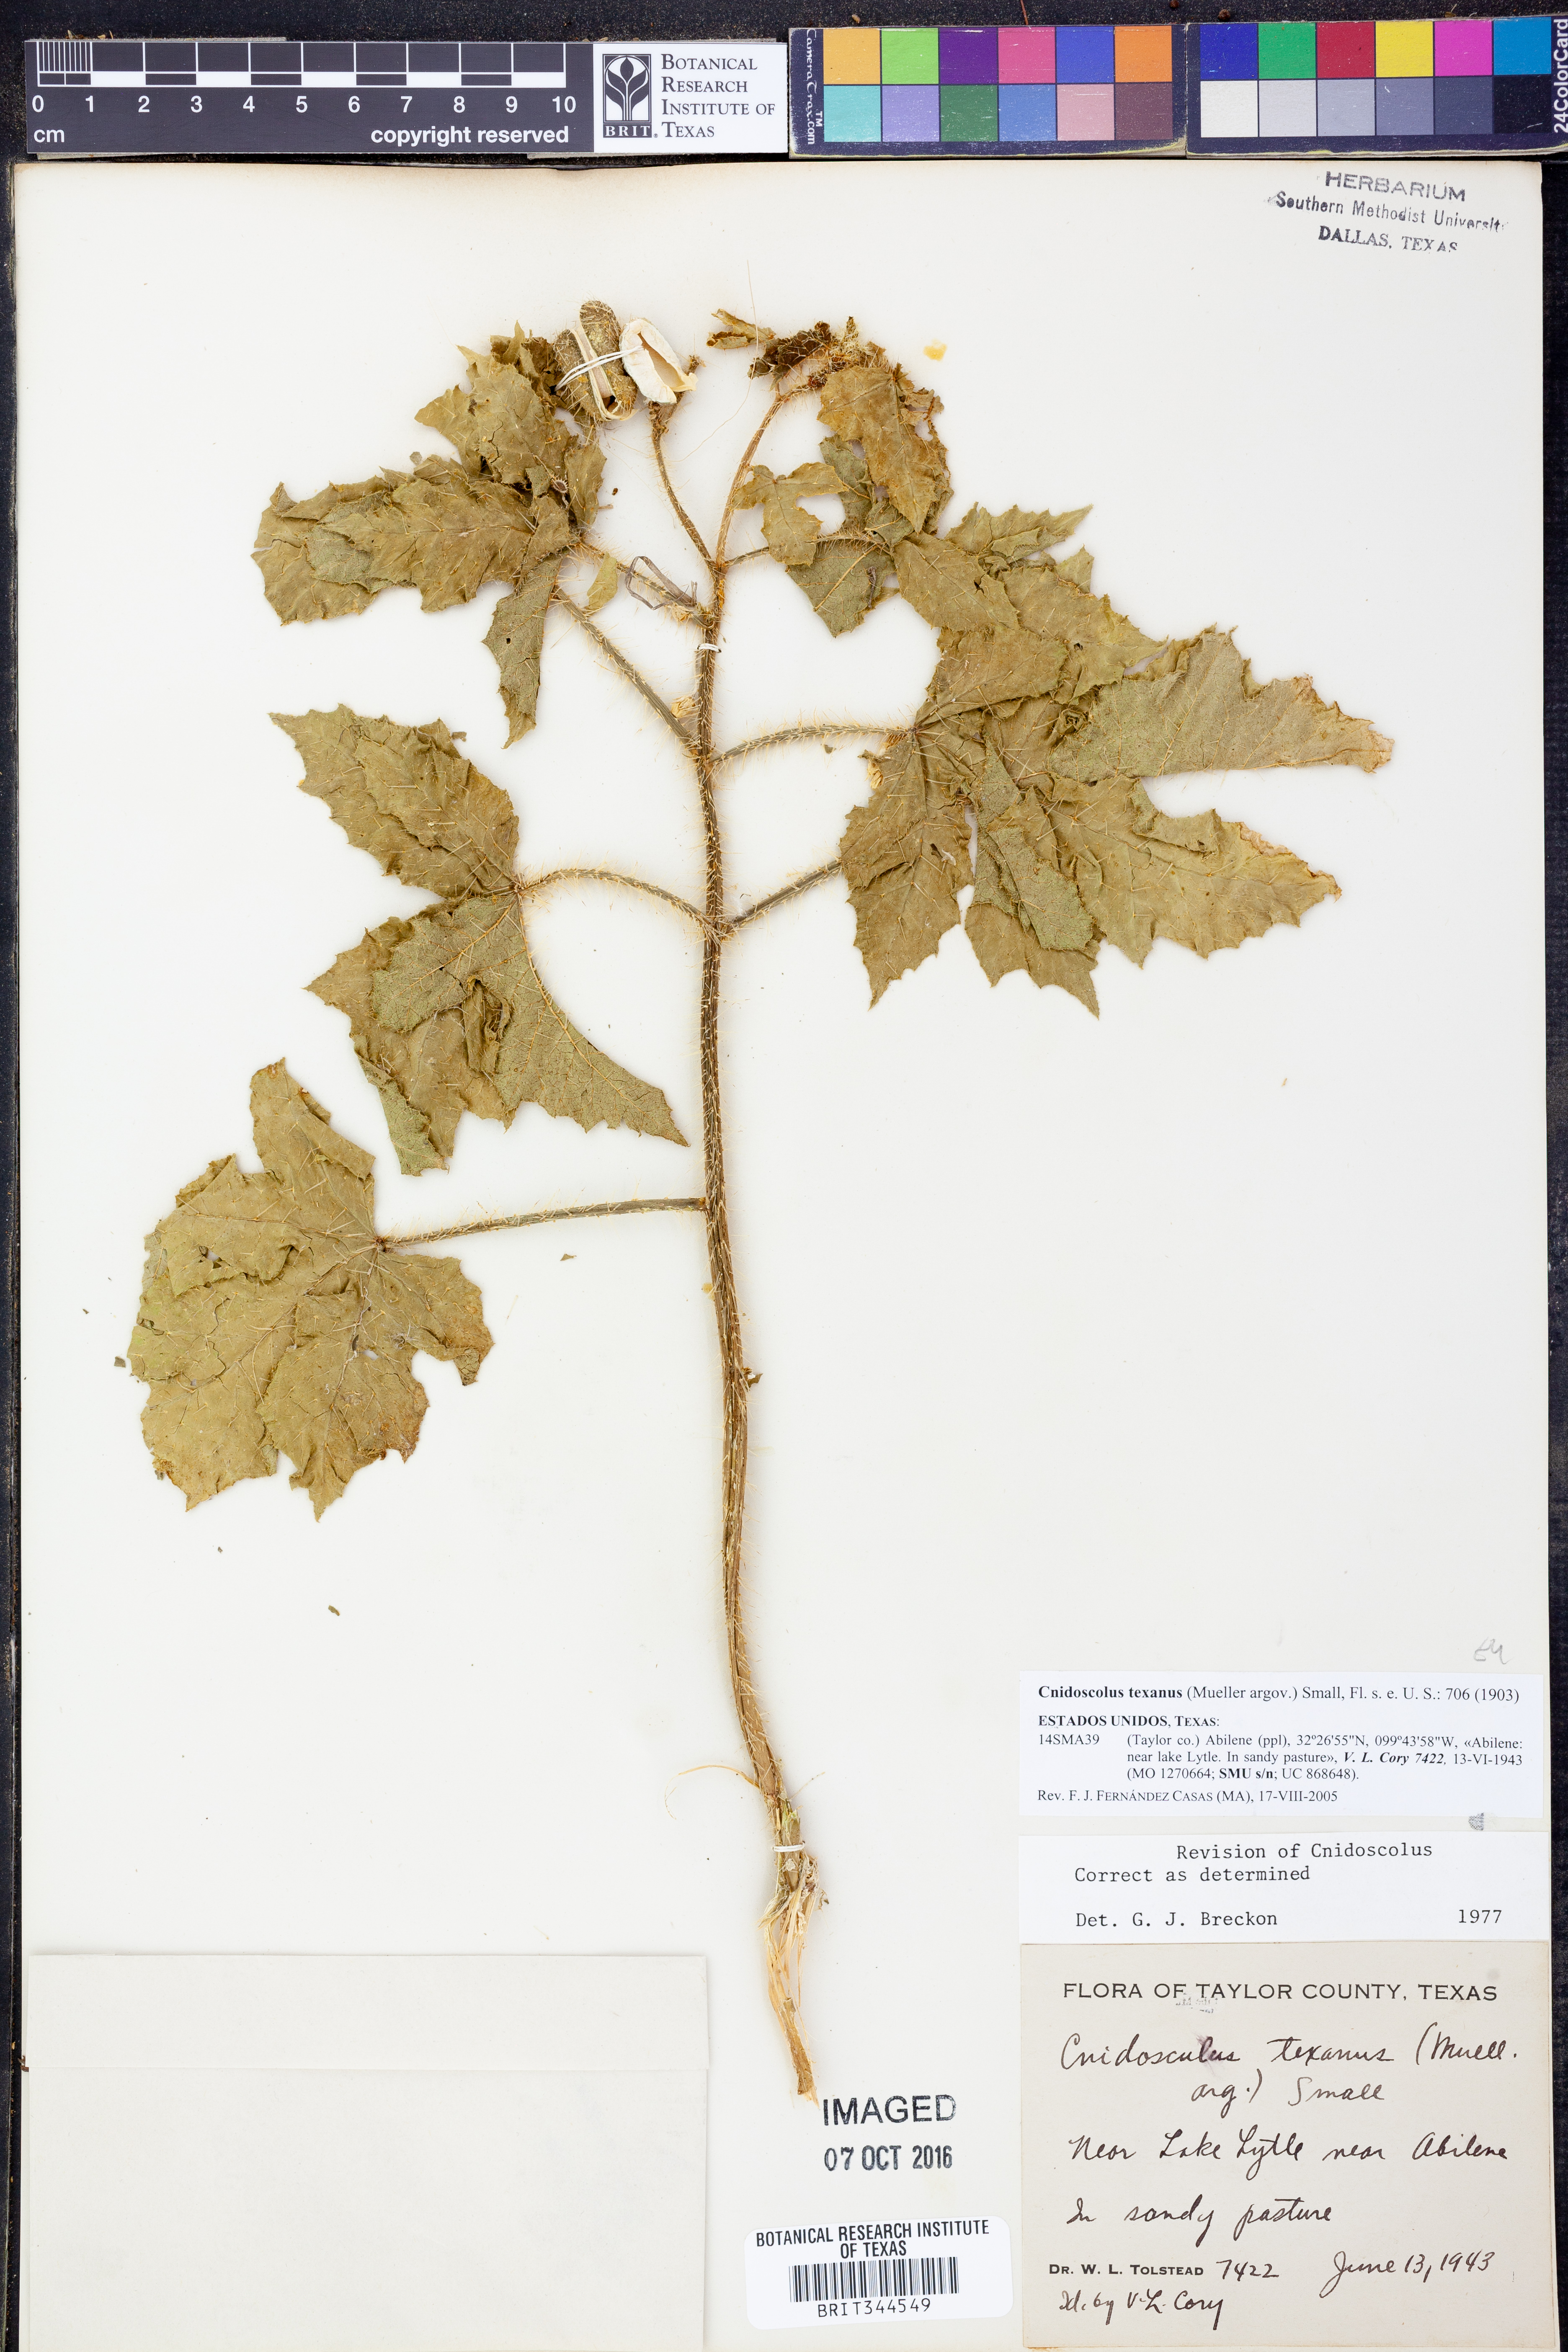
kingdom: Plantae
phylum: Tracheophyta
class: Magnoliopsida
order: Malpighiales
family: Euphorbiaceae
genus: Cnidoscolus
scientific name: Cnidoscolus texanus
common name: Texas bull-nettle
